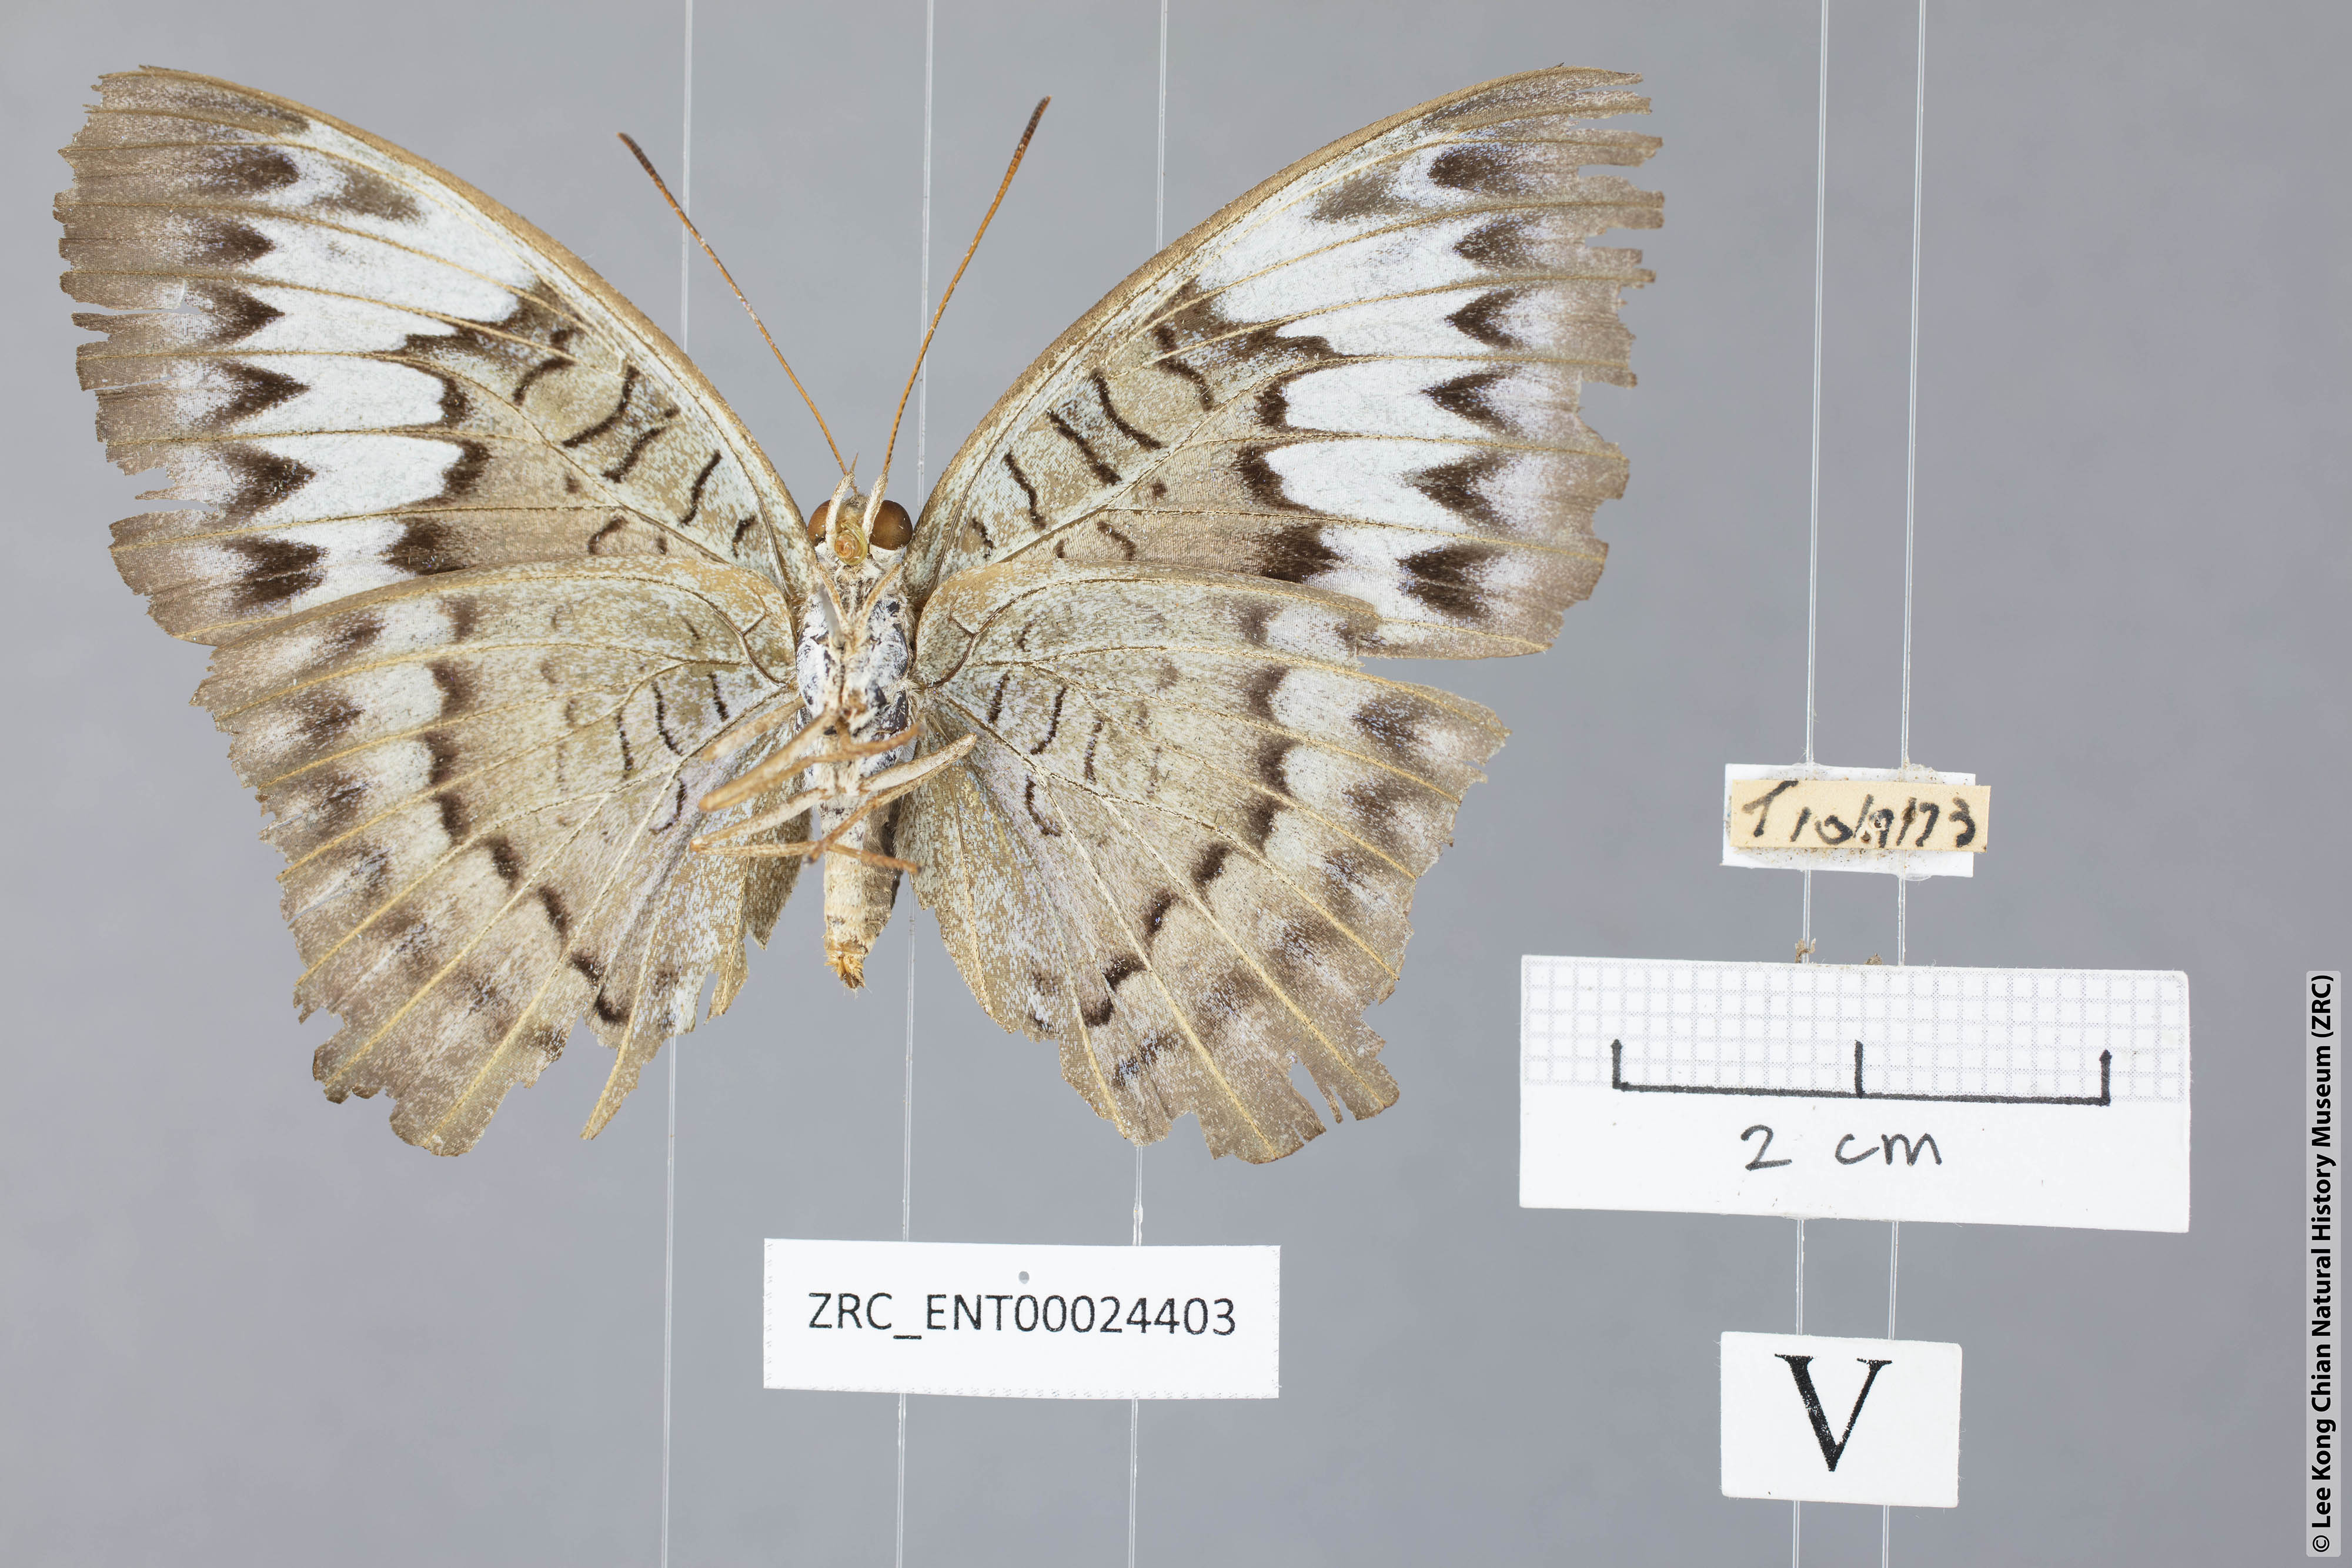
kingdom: Animalia
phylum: Arthropoda
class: Insecta
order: Lepidoptera
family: Nymphalidae
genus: Tanaecia
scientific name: Tanaecia pelea
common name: Malay viscount
